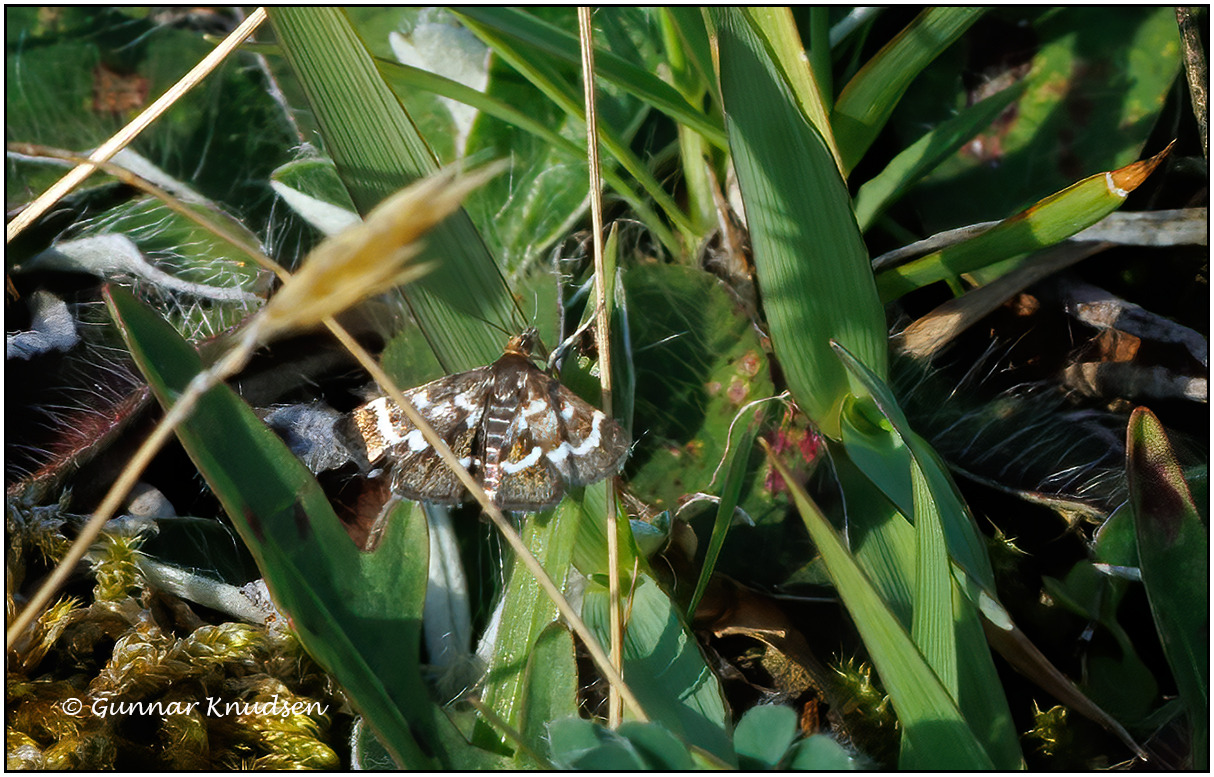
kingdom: Animalia
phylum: Arthropoda
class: Insecta
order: Lepidoptera
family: Crambidae
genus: Pyrausta
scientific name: Pyrausta nigrata
